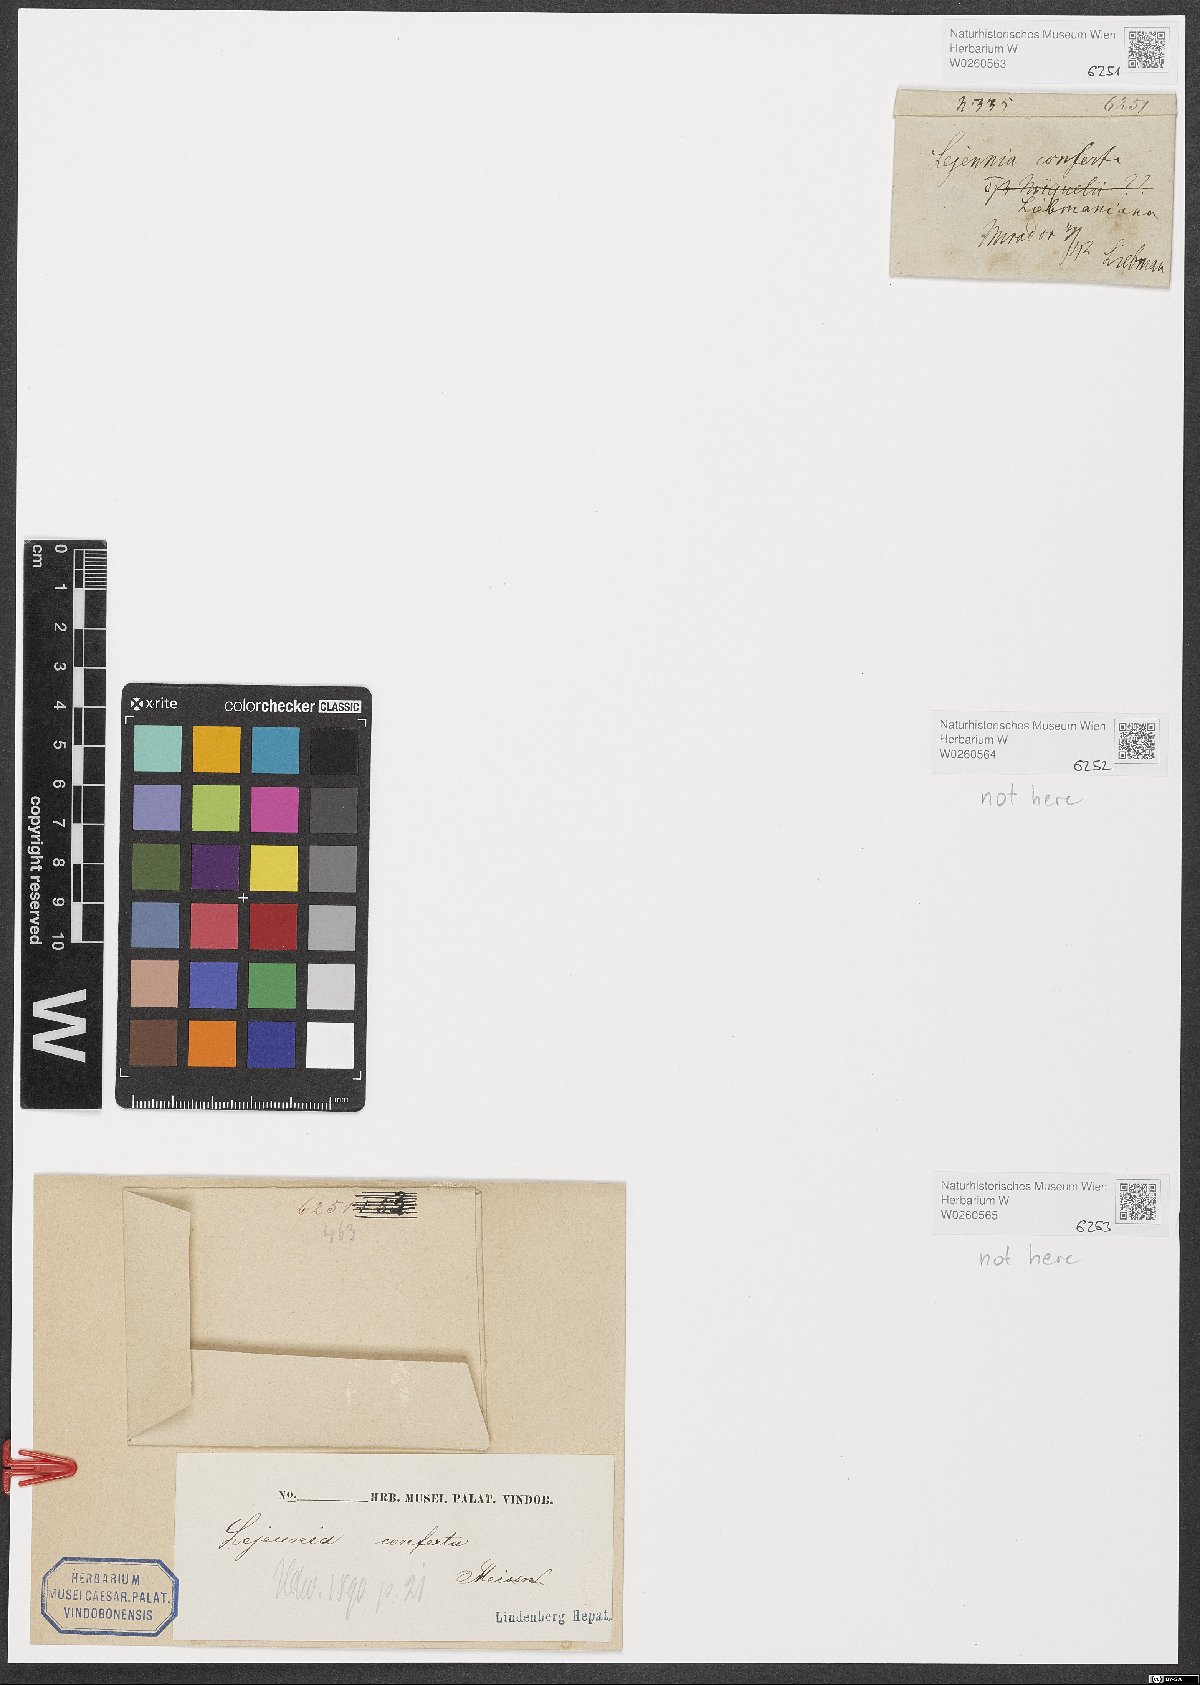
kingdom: Plantae
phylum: Marchantiophyta
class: Jungermanniopsida
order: Porellales
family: Lejeuneaceae
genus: Anoplolejeunea
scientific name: Anoplolejeunea conferta
